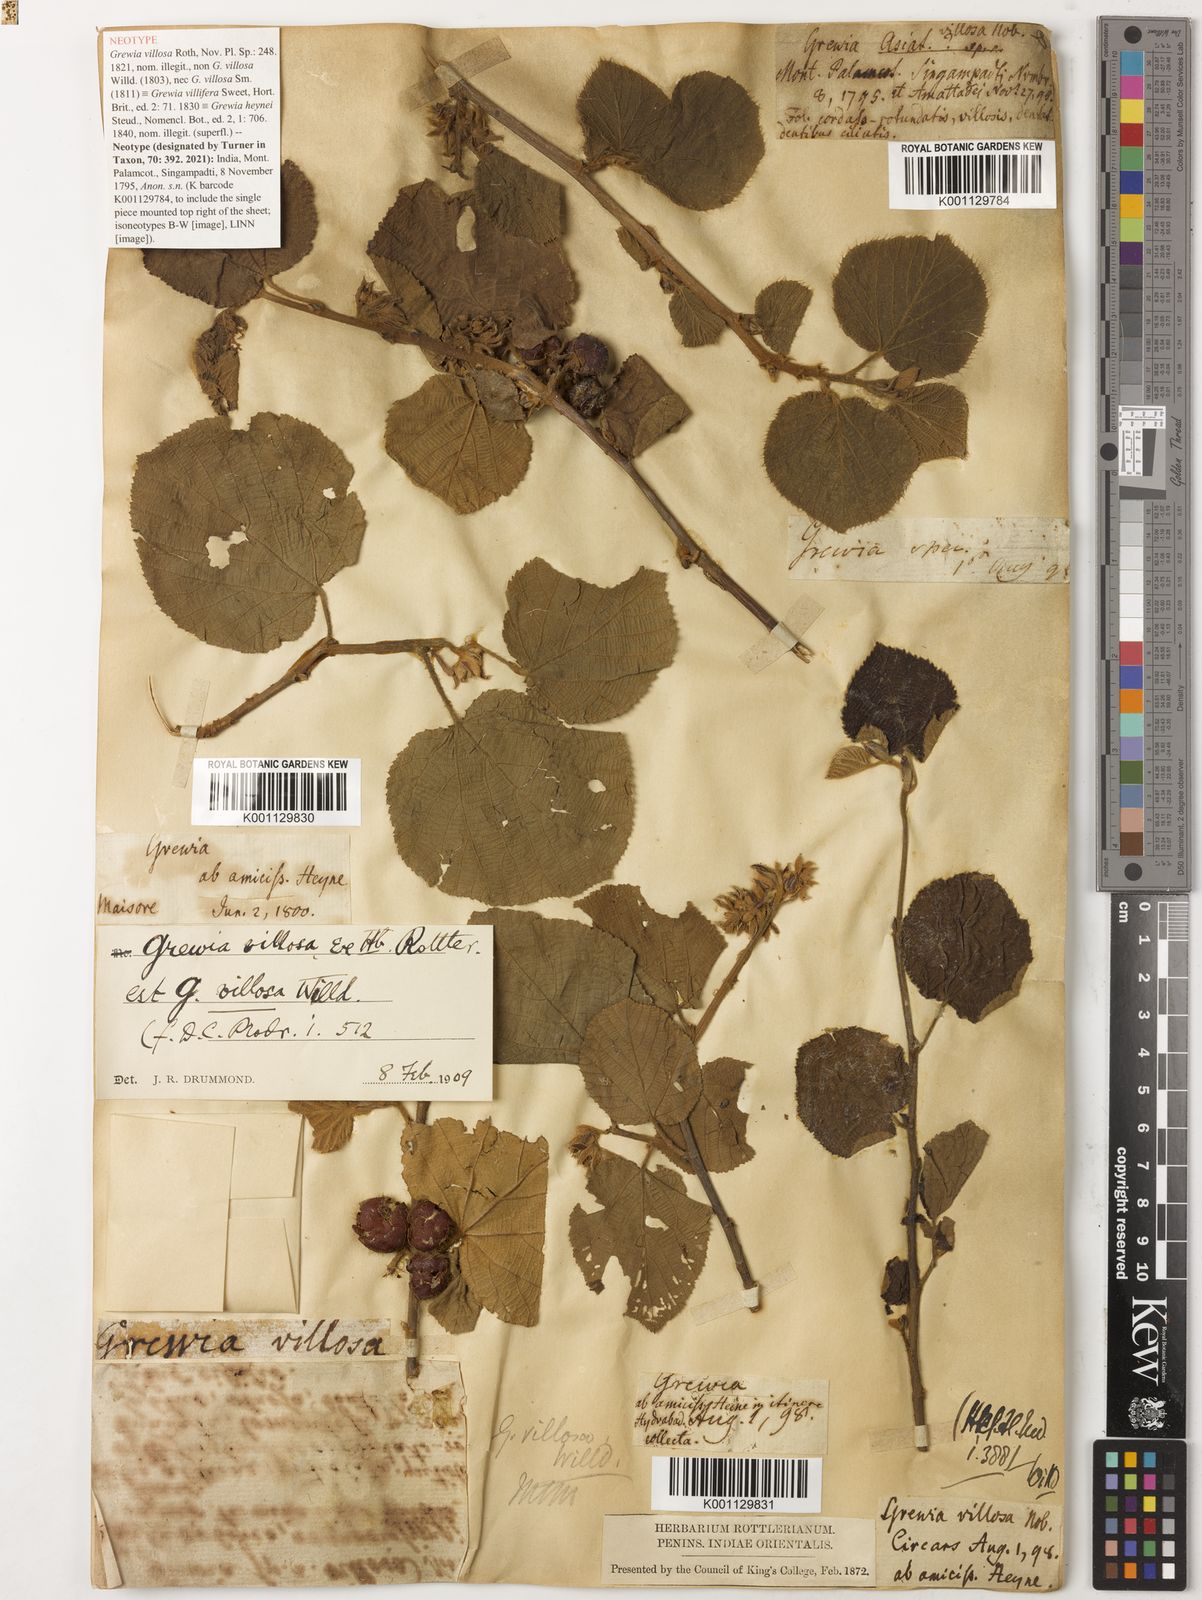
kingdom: Plantae
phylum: Tracheophyta
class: Magnoliopsida
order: Malvales
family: Malvaceae
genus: Grewia
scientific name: Grewia villosa
